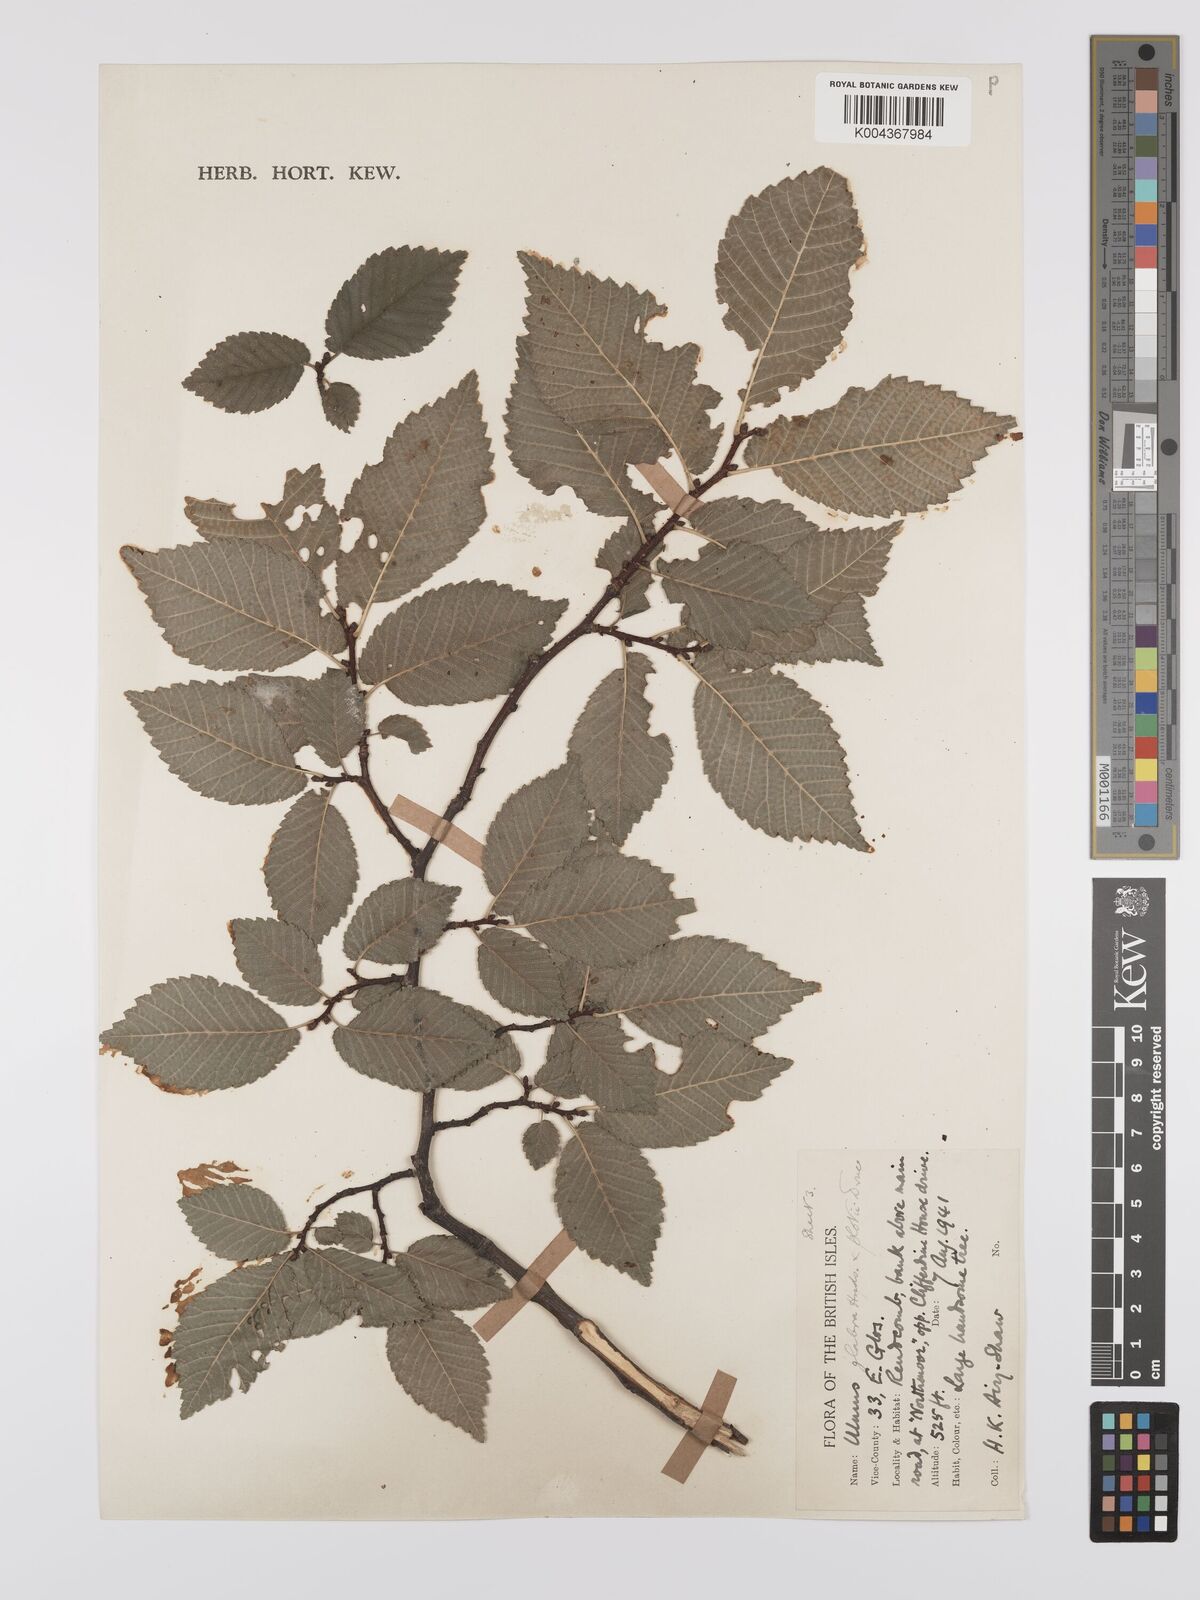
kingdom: Plantae
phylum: Tracheophyta
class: Magnoliopsida
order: Rosales
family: Ulmaceae
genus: Ulmus
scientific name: Ulmus
